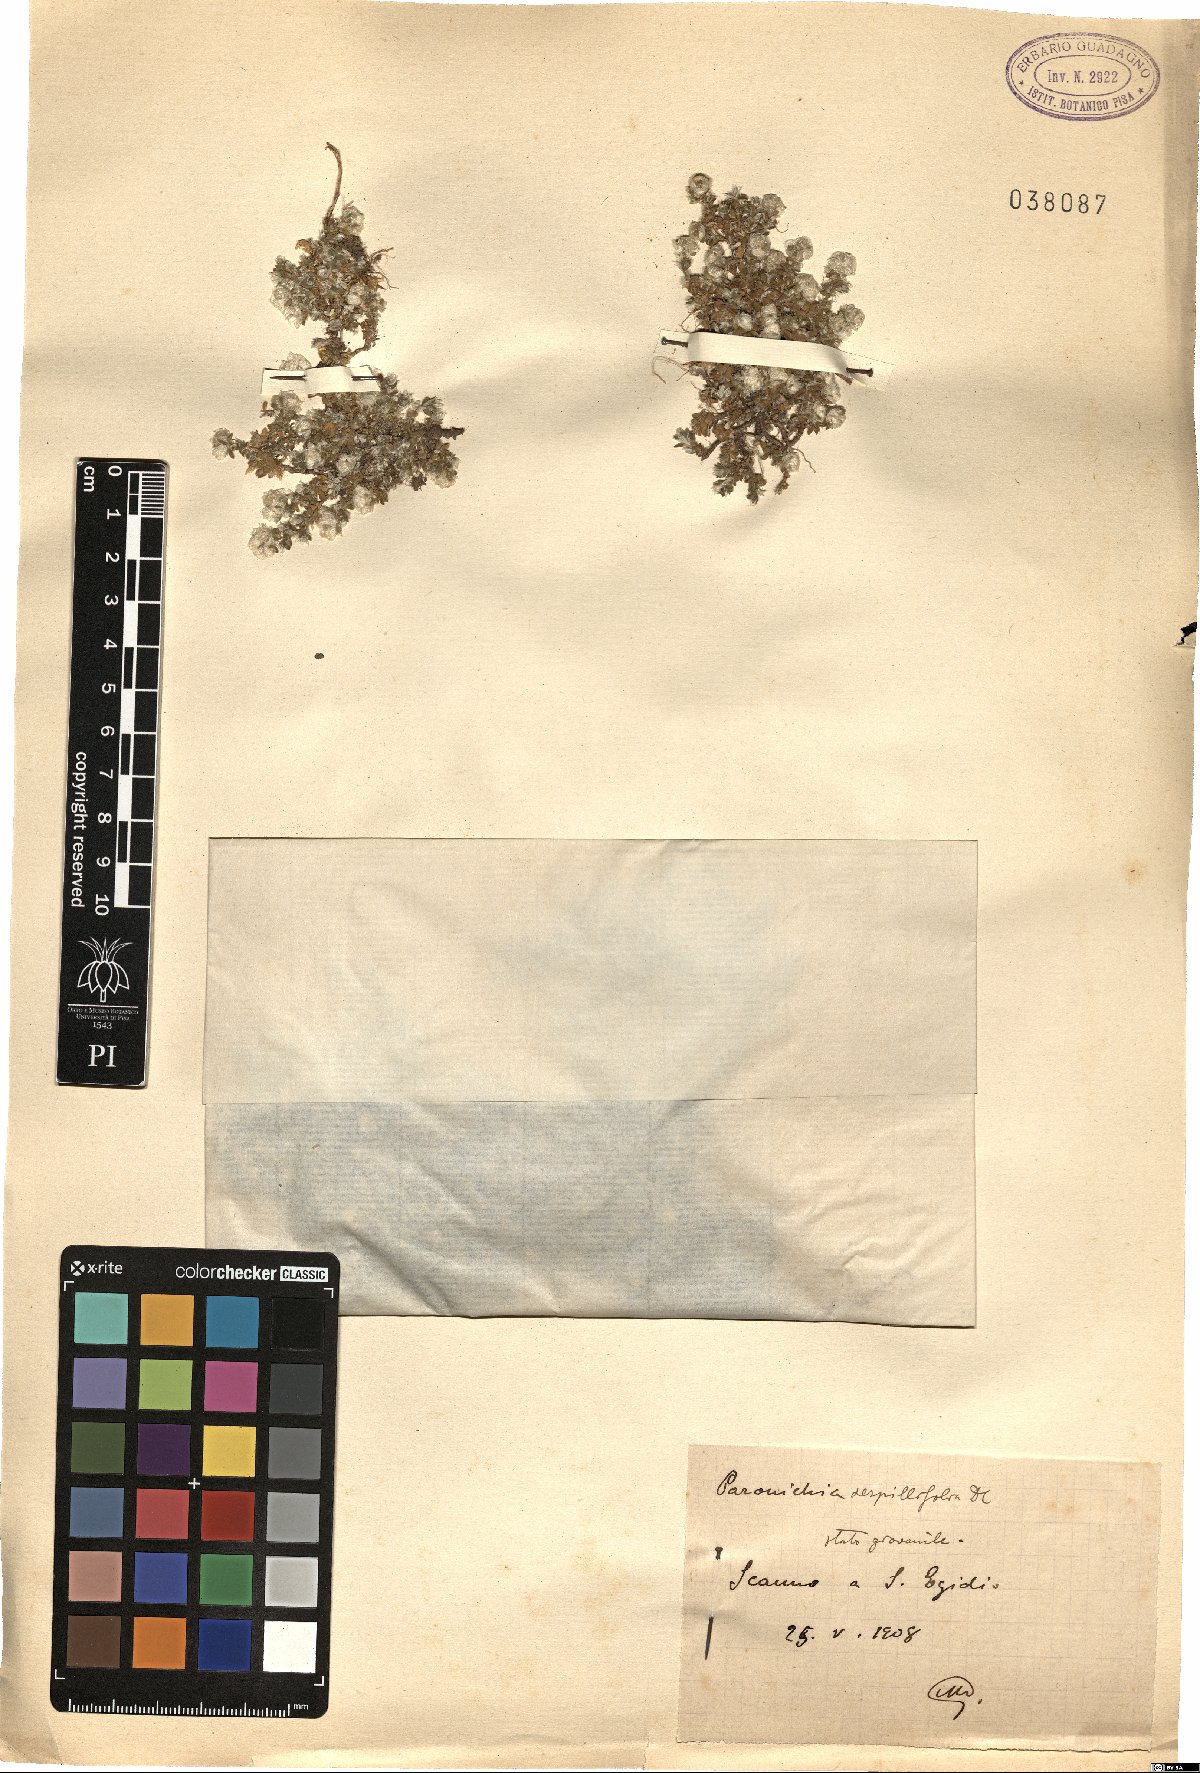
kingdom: Plantae
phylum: Tracheophyta
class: Magnoliopsida
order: Caryophyllales
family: Caryophyllaceae
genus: Paronychia
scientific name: Paronychia kapela
